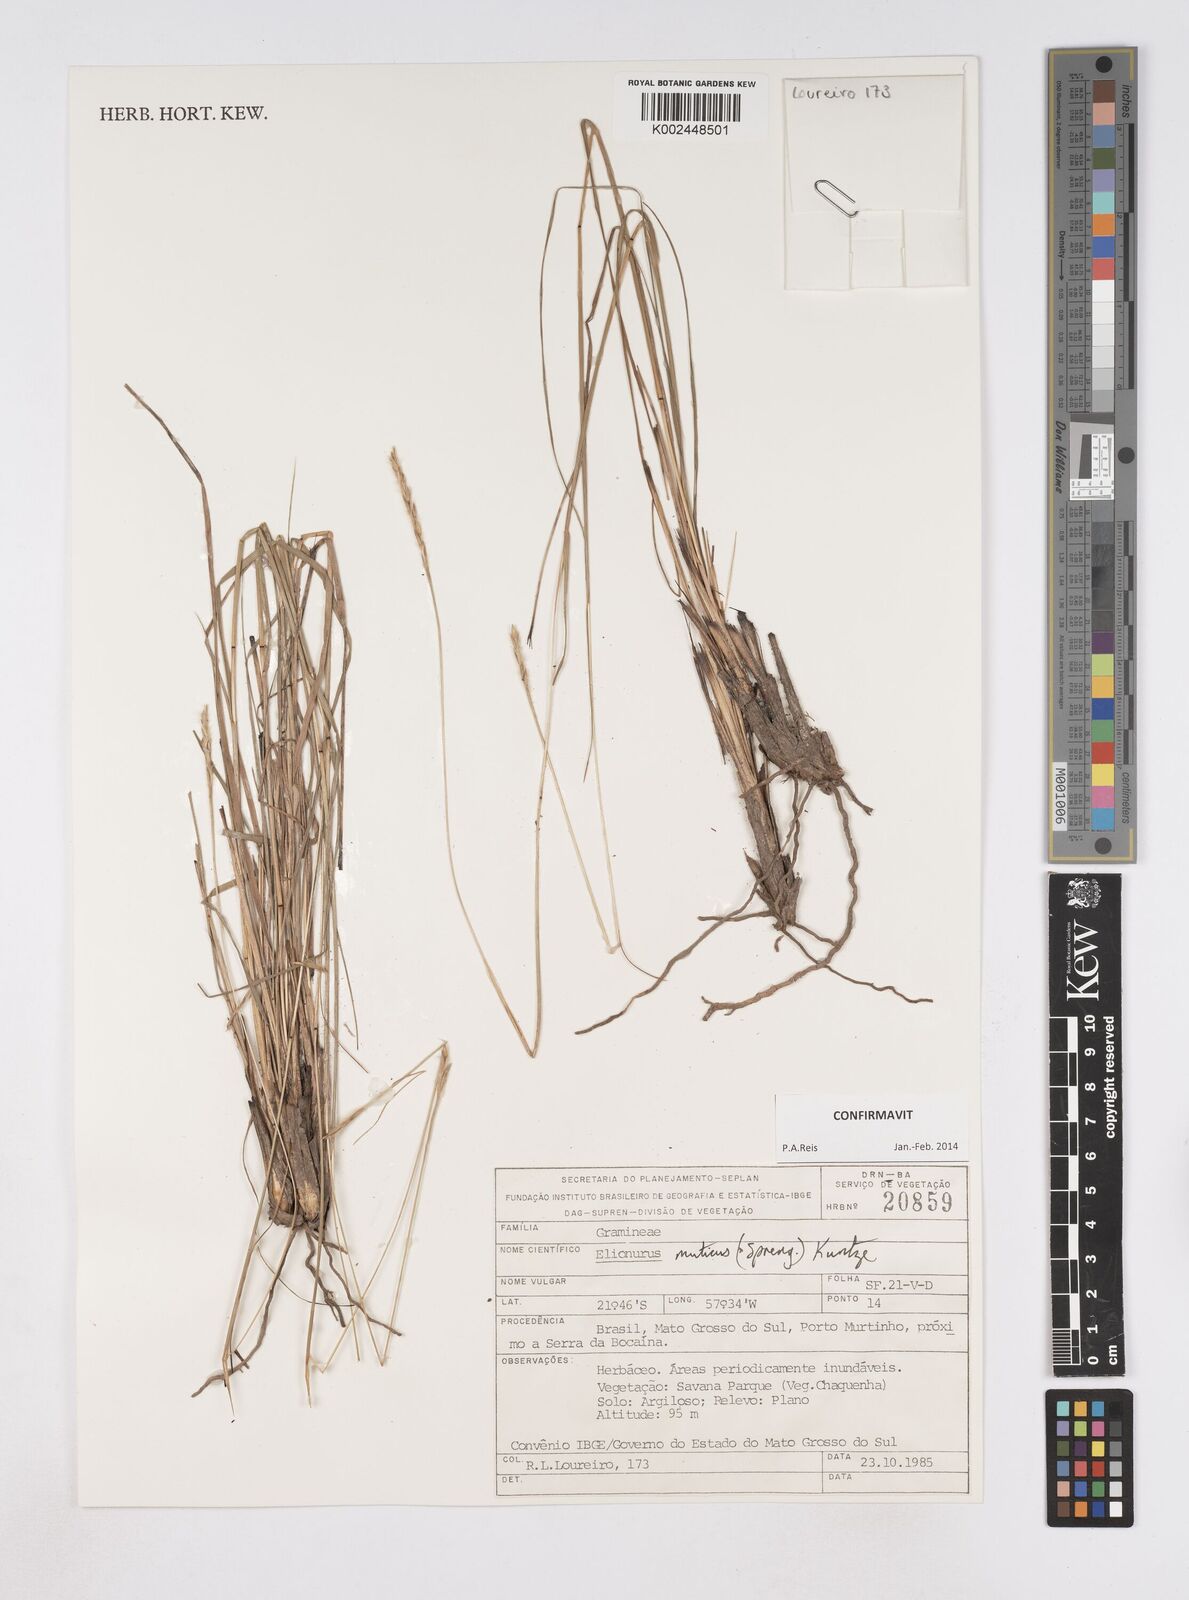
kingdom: Plantae
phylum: Tracheophyta
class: Liliopsida
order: Poales
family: Poaceae
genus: Elionurus
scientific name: Elionurus muticus
